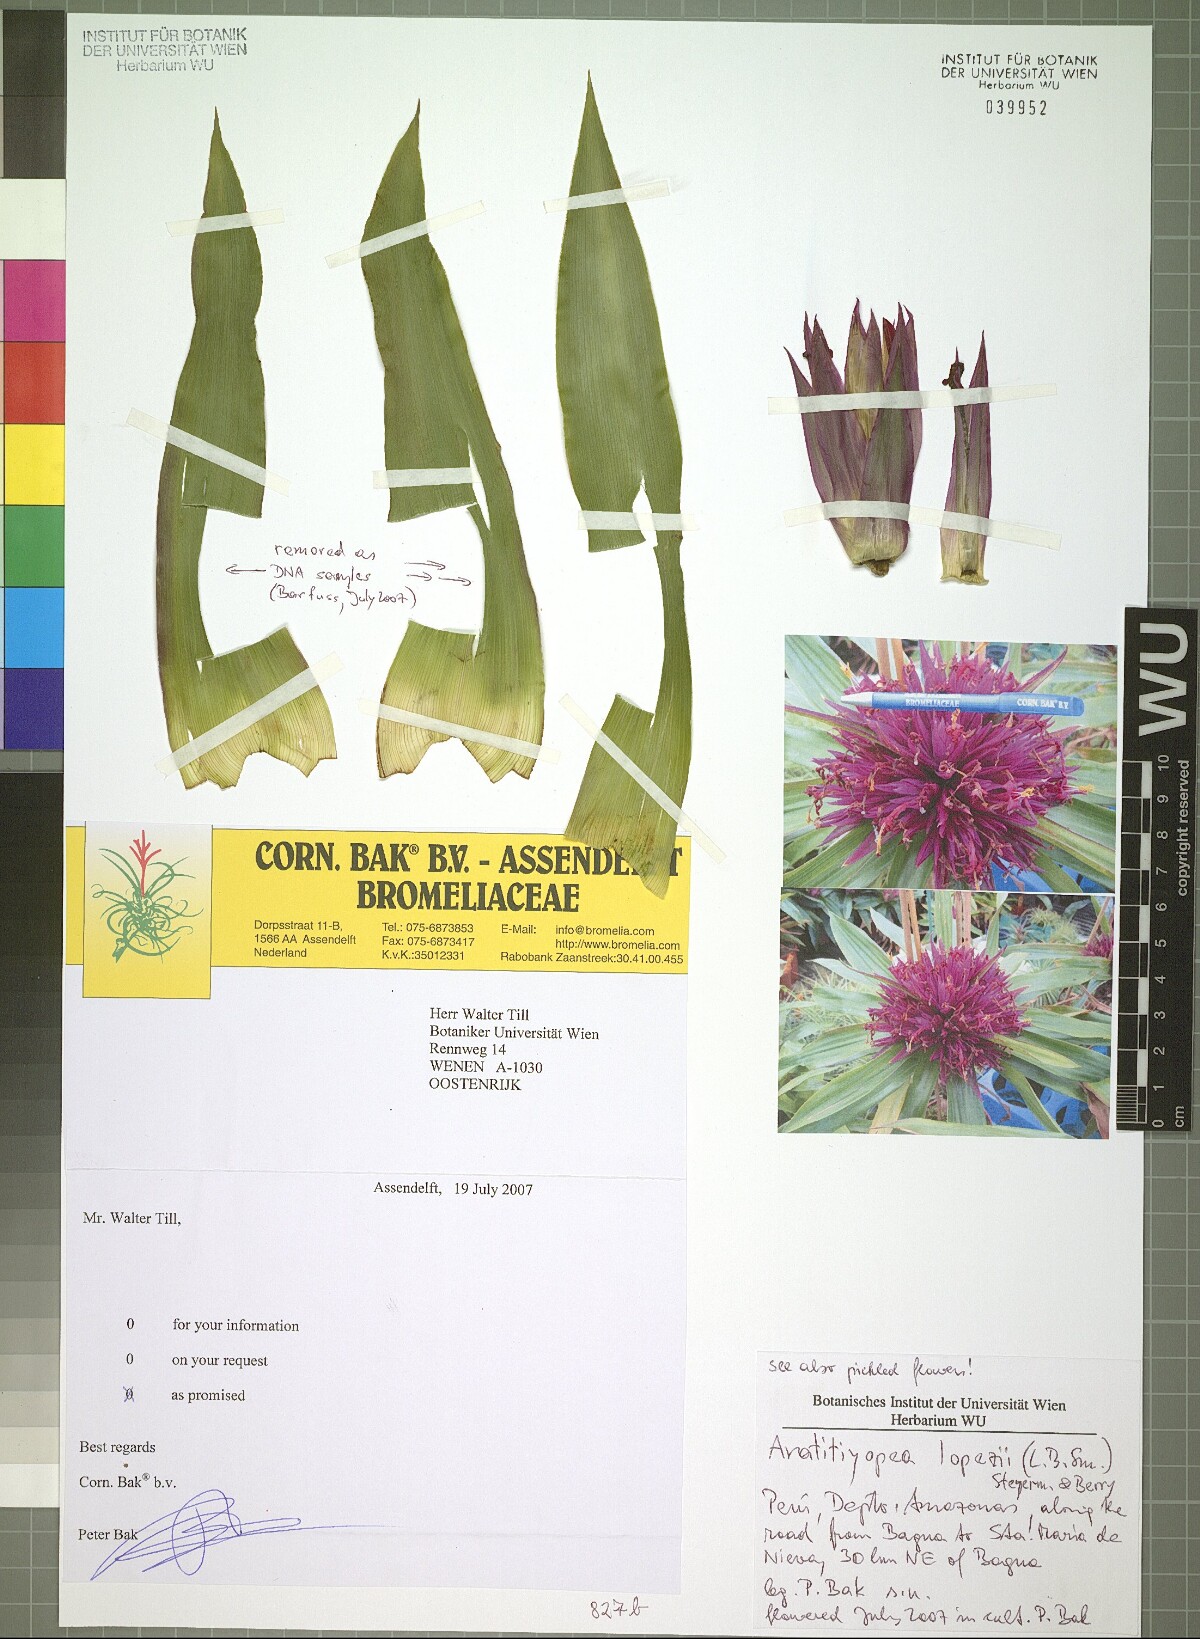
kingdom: Plantae
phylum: Tracheophyta
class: Liliopsida
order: Poales
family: Xyridaceae
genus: Aratitiyopea
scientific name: Aratitiyopea lopezii
